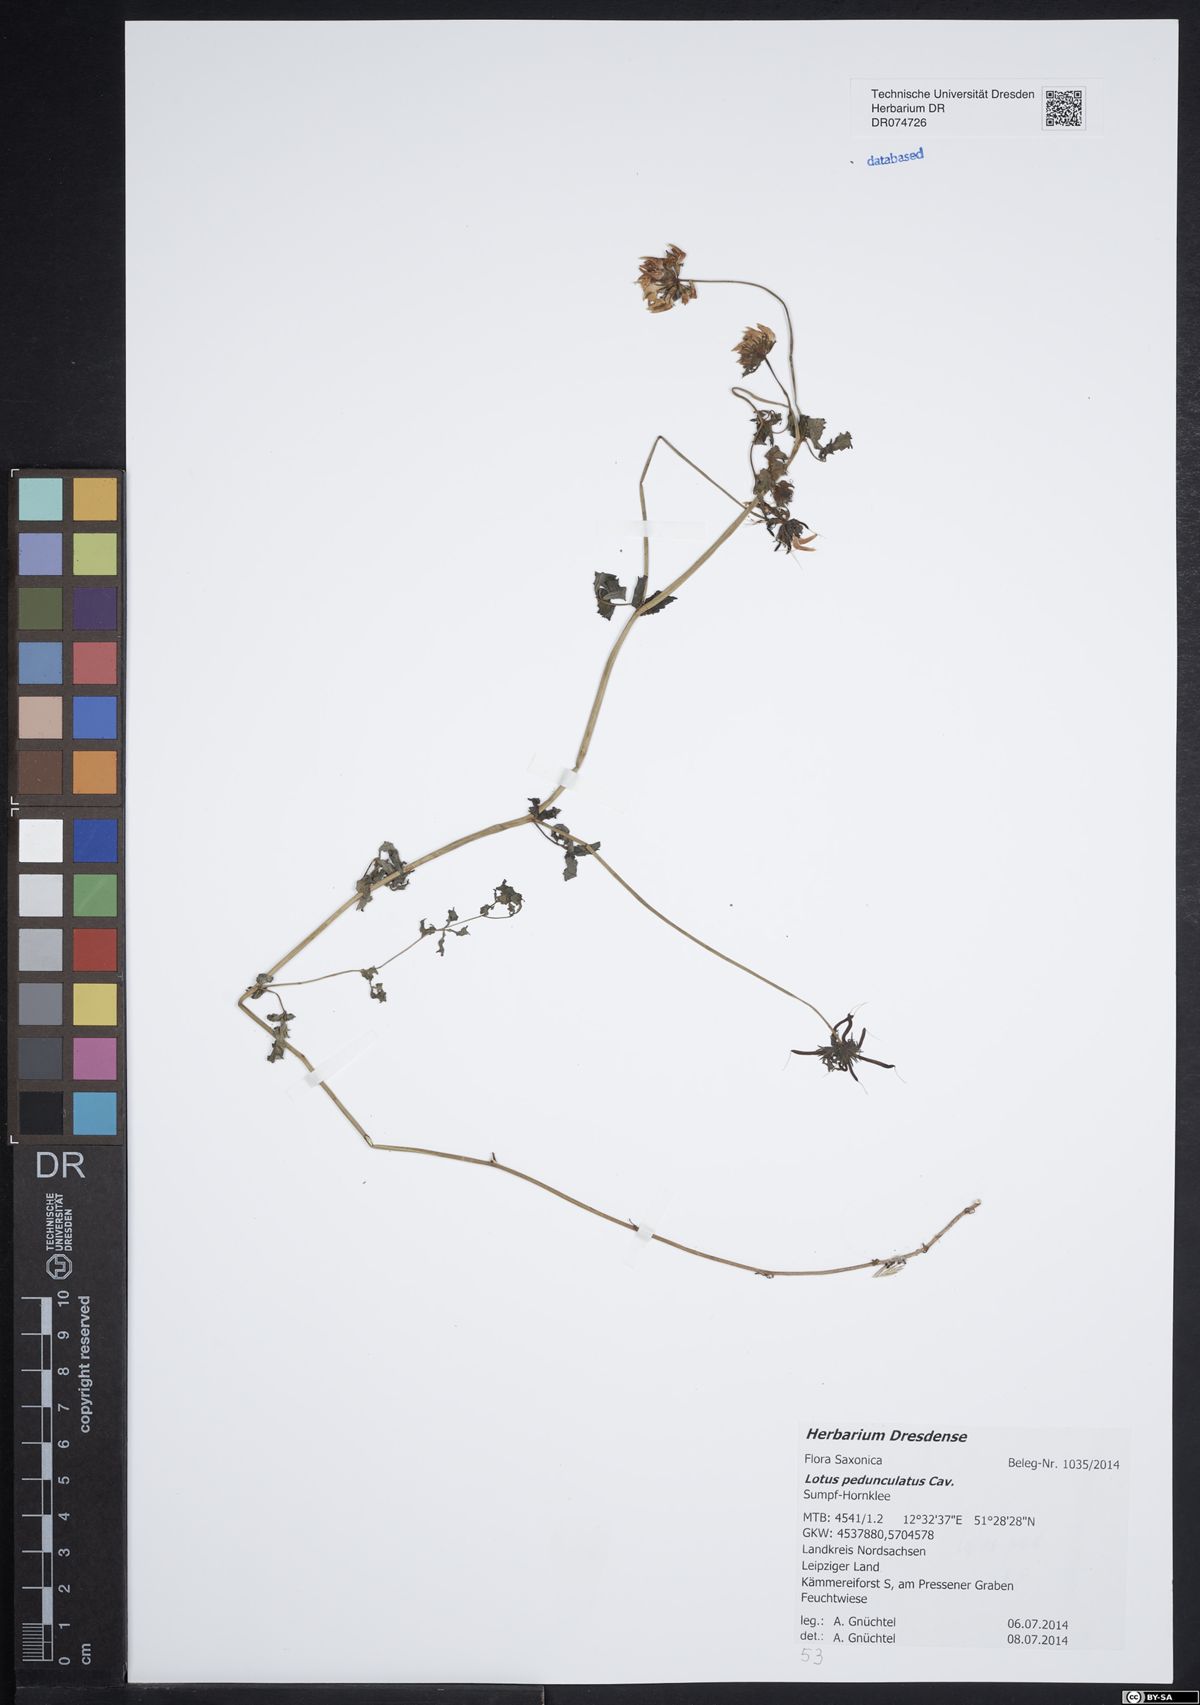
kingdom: Plantae
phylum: Tracheophyta
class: Magnoliopsida
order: Fabales
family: Fabaceae
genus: Lotus
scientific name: Lotus pedunculatus
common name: Greater birdsfoot-trefoil
